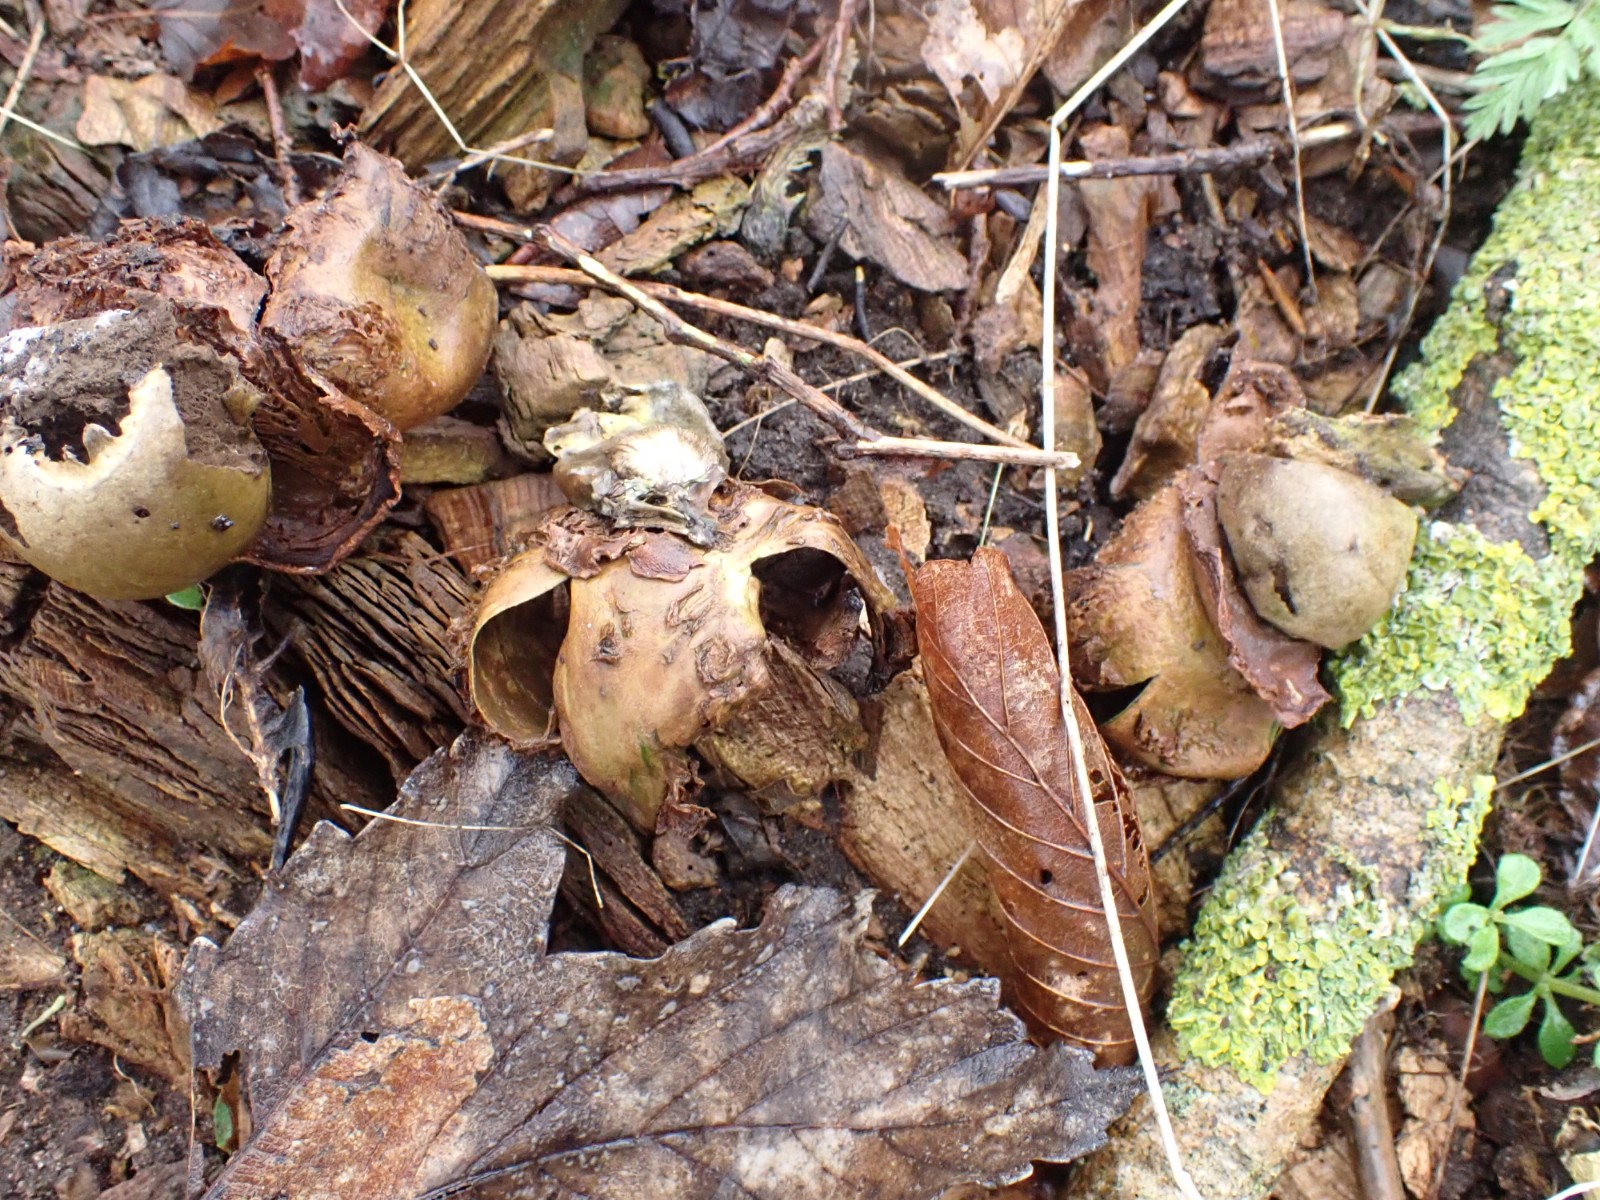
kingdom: Fungi
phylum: Basidiomycota
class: Agaricomycetes
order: Geastrales
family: Geastraceae
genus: Geastrum
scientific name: Geastrum michelianum
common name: kødet stjernebold
